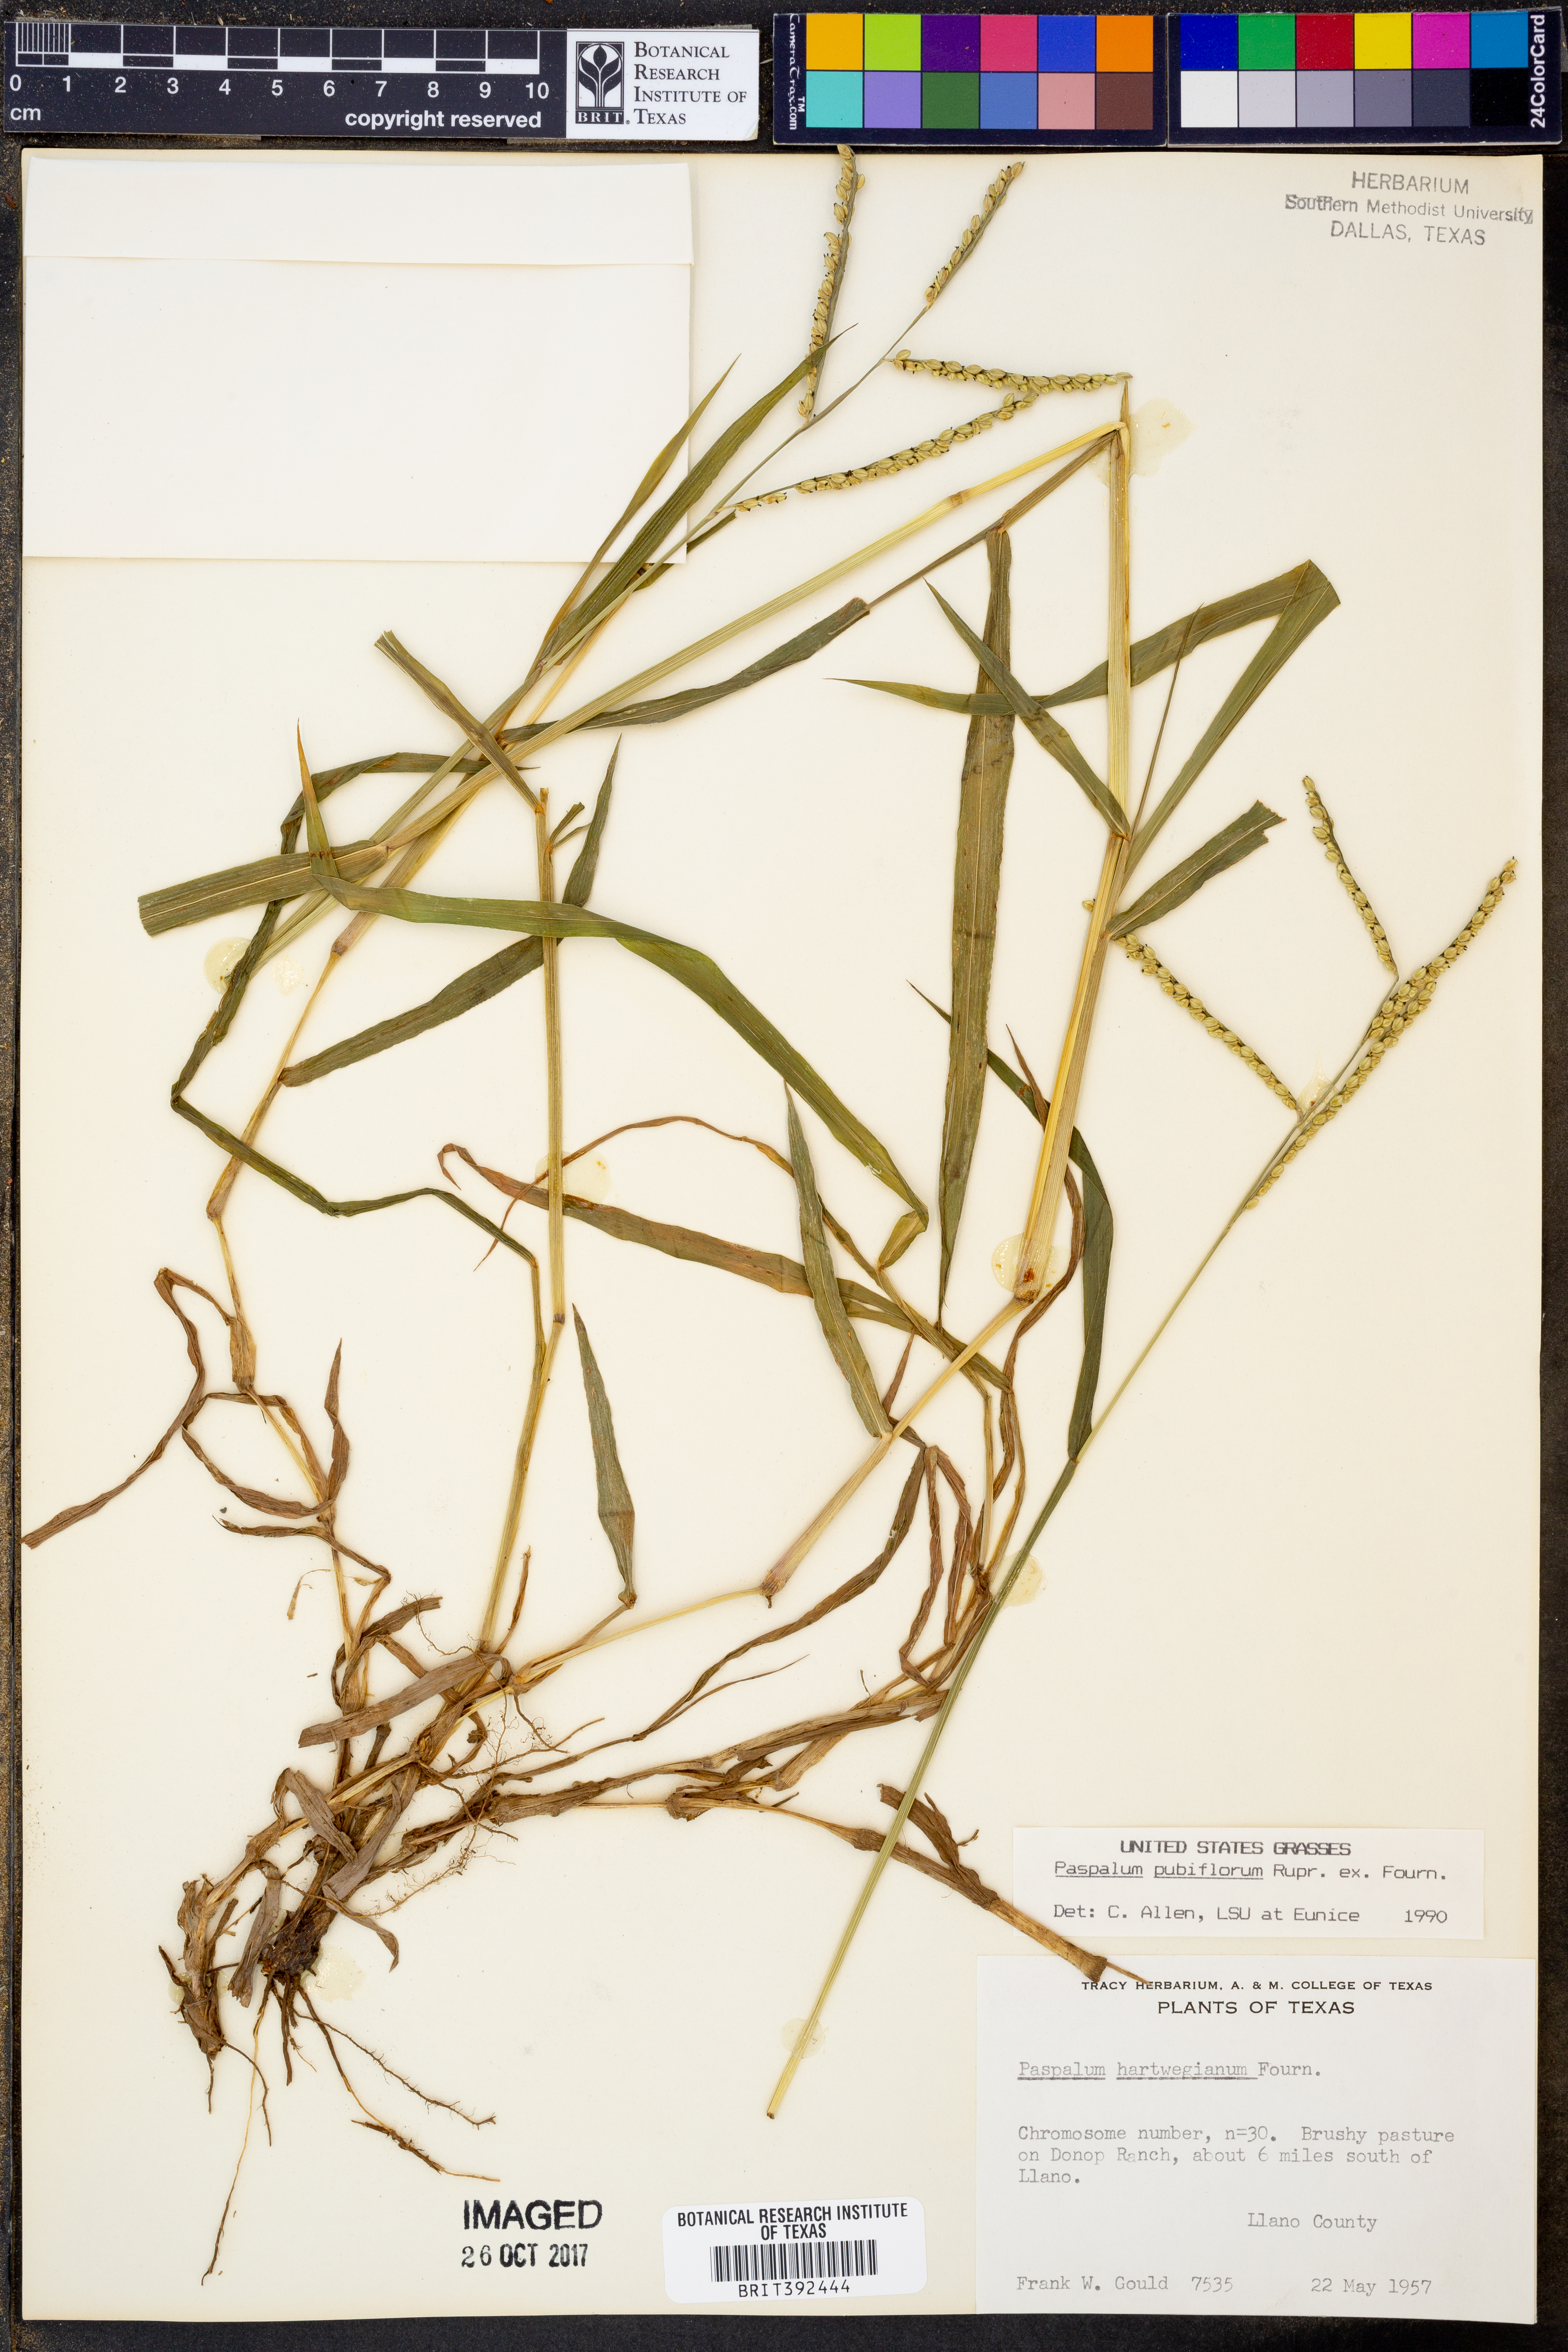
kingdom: Plantae
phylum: Tracheophyta
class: Liliopsida
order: Poales
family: Poaceae
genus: Paspalum
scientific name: Paspalum pubiflorum
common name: Hairy-seed paspalum
